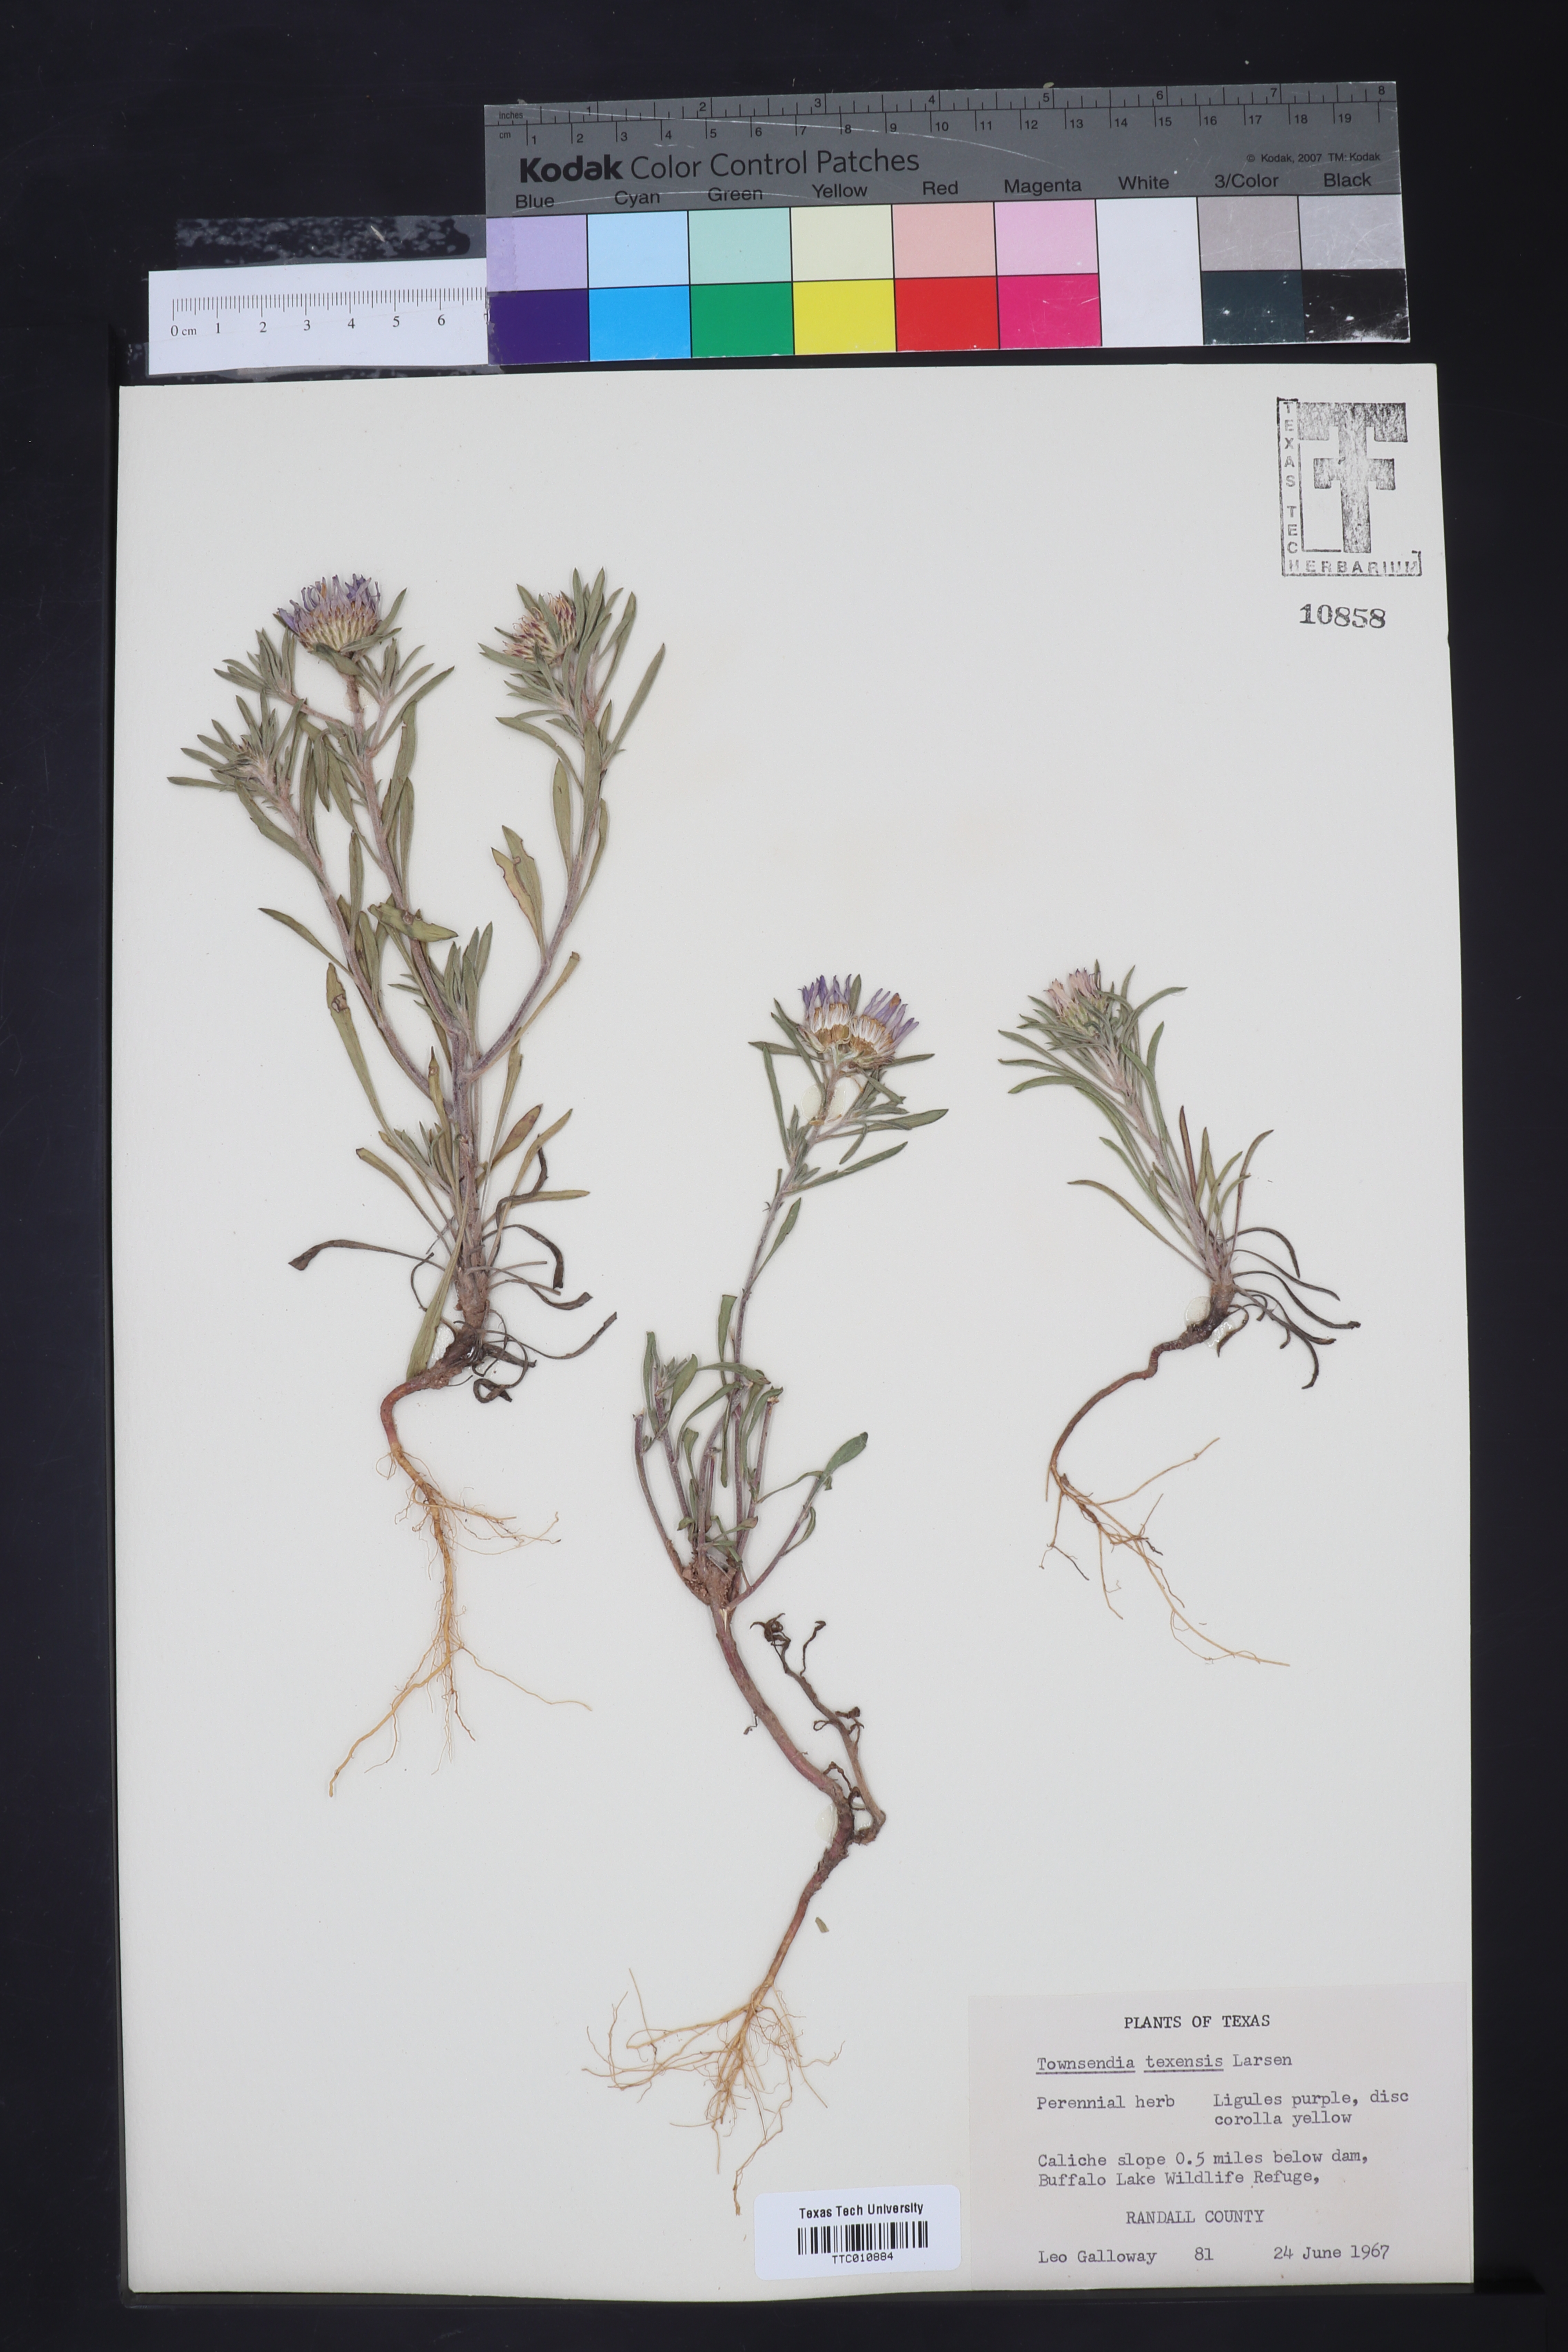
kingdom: Plantae
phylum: Tracheophyta
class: Magnoliopsida
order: Asterales
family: Asteraceae
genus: Townsendia
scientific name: Townsendia texensis
